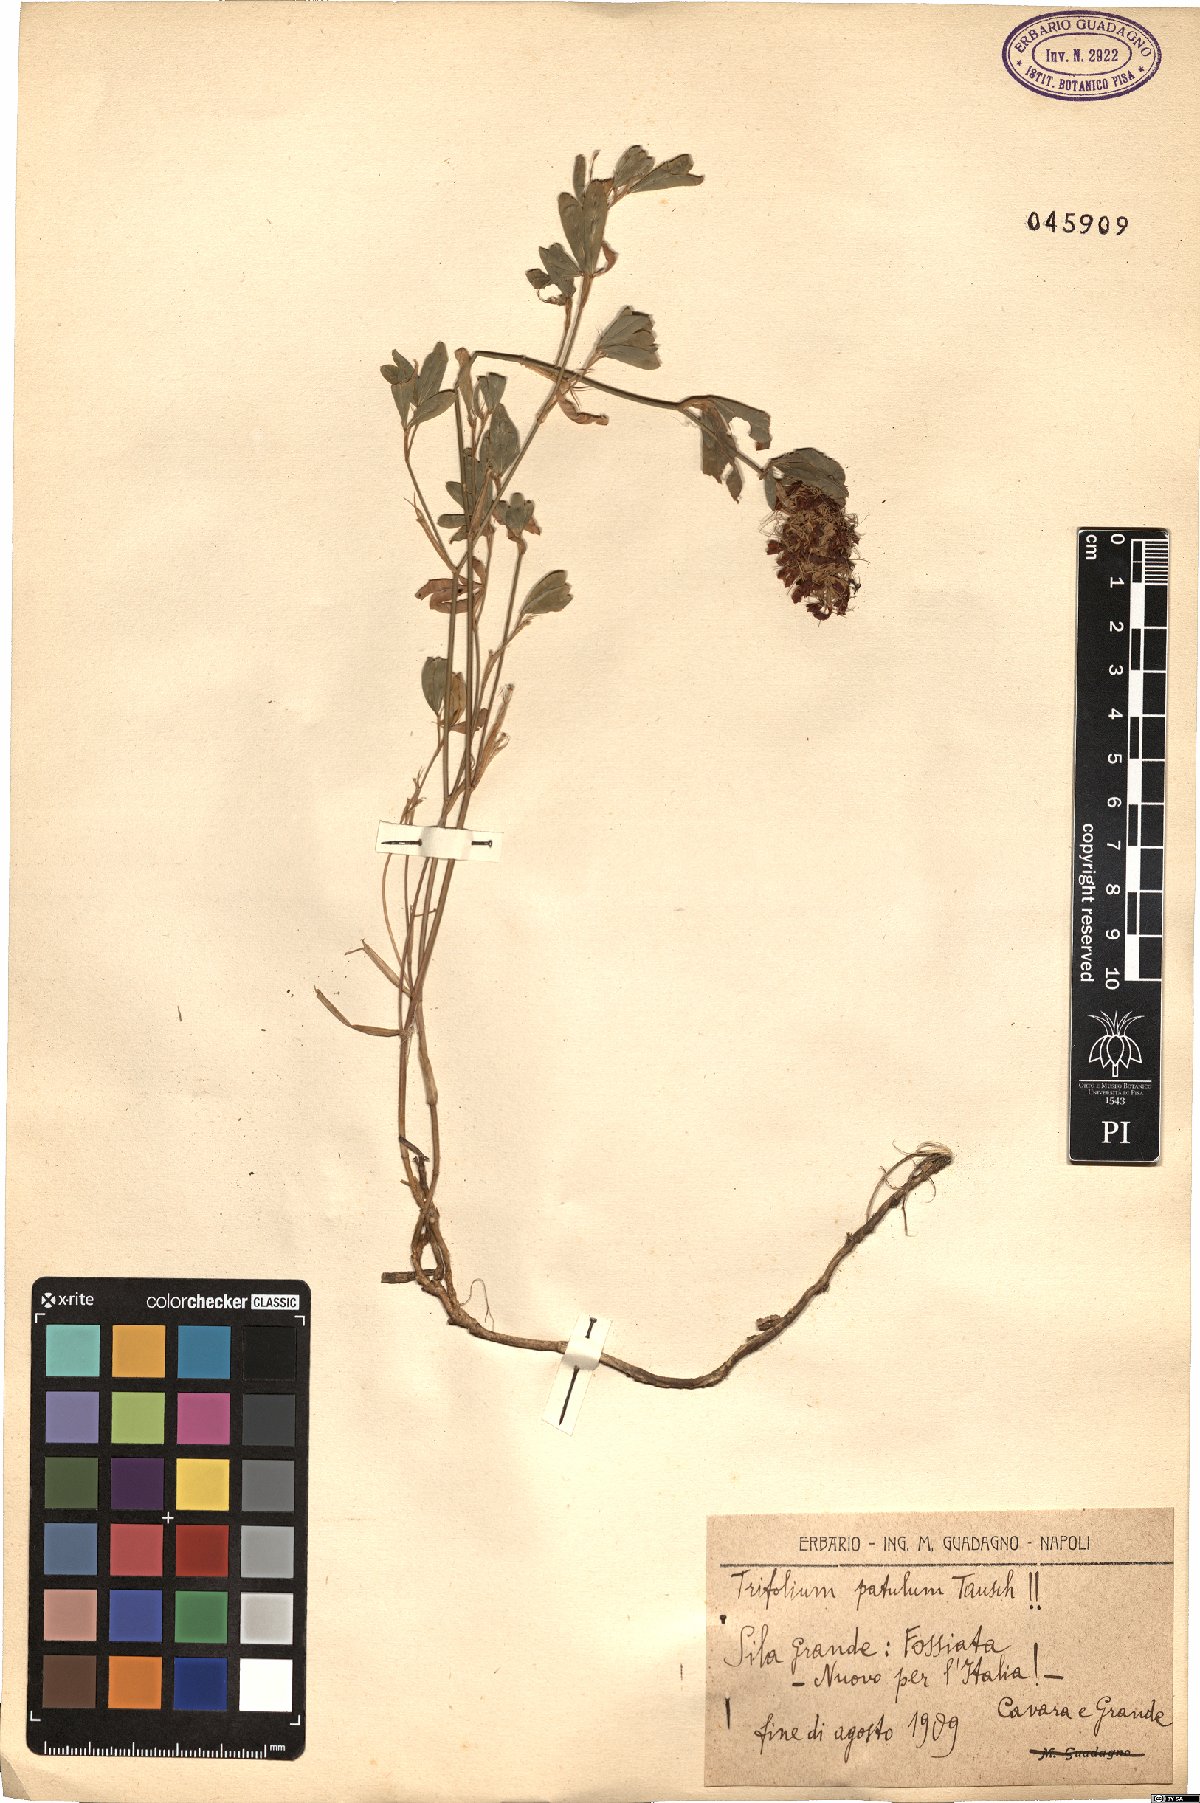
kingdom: Plantae
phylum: Tracheophyta
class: Magnoliopsida
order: Fabales
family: Fabaceae
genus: Trifolium
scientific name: Trifolium patulum
